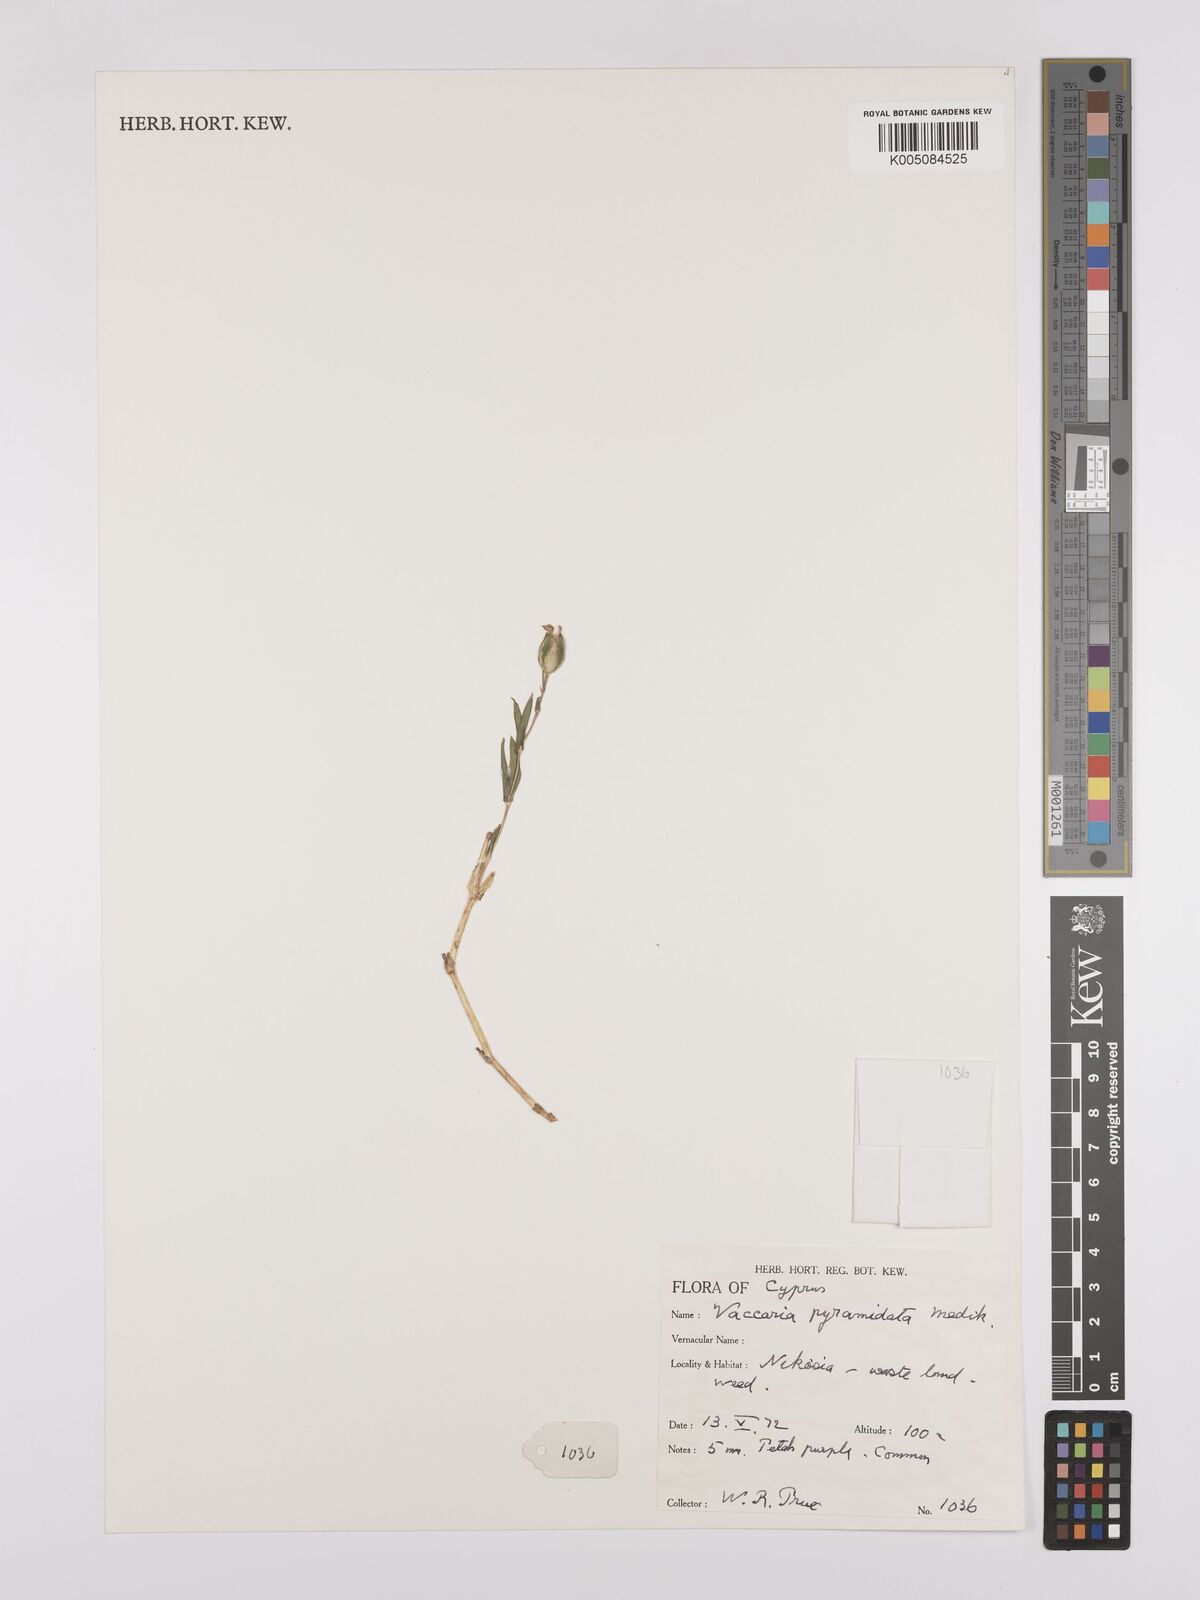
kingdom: Plantae
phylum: Tracheophyta
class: Magnoliopsida
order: Caryophyllales
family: Caryophyllaceae
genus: Gypsophila
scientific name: Gypsophila vaccaria
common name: Cow soapwort
